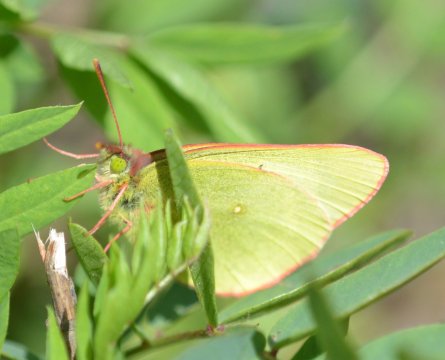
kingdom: Animalia
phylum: Arthropoda
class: Insecta
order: Lepidoptera
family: Pieridae
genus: Colias
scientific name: Colias palaeno
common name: Chippewa Sulphur
